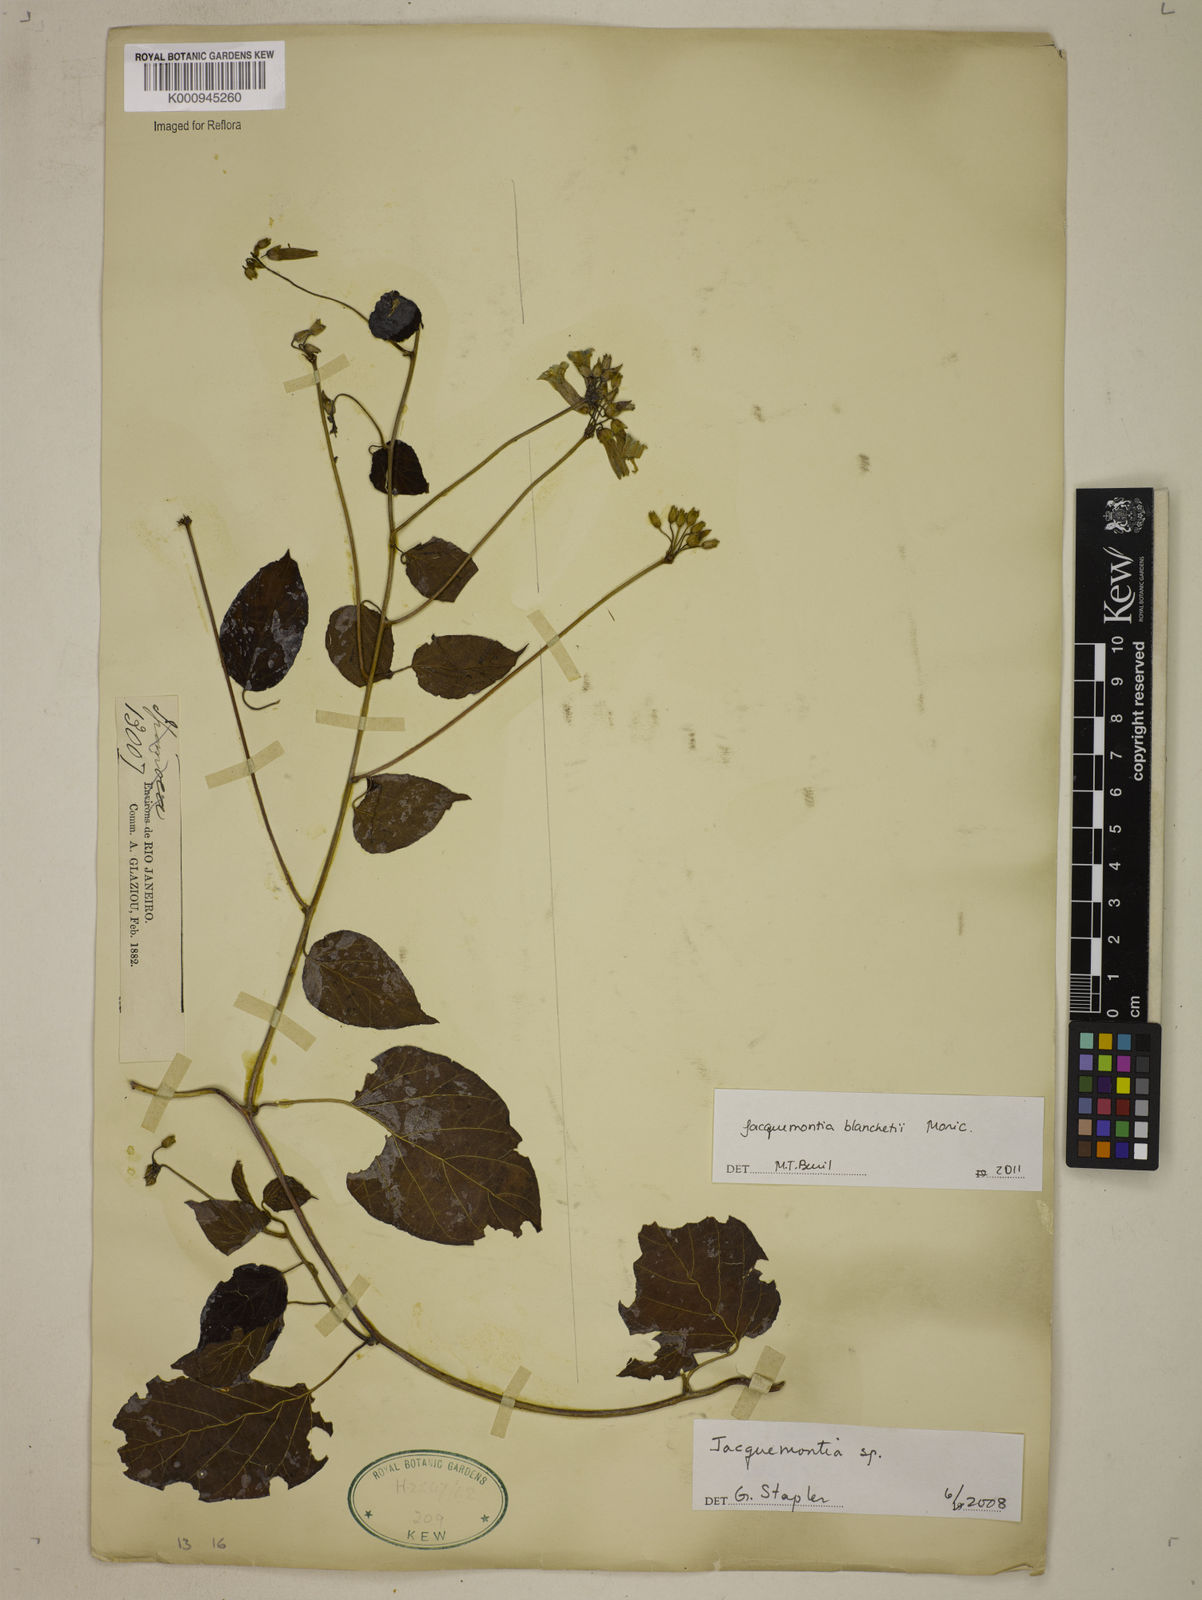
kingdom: Plantae
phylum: Tracheophyta
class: Magnoliopsida
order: Solanales
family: Convolvulaceae
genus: Jacquemontia
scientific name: Jacquemontia blanchetii
